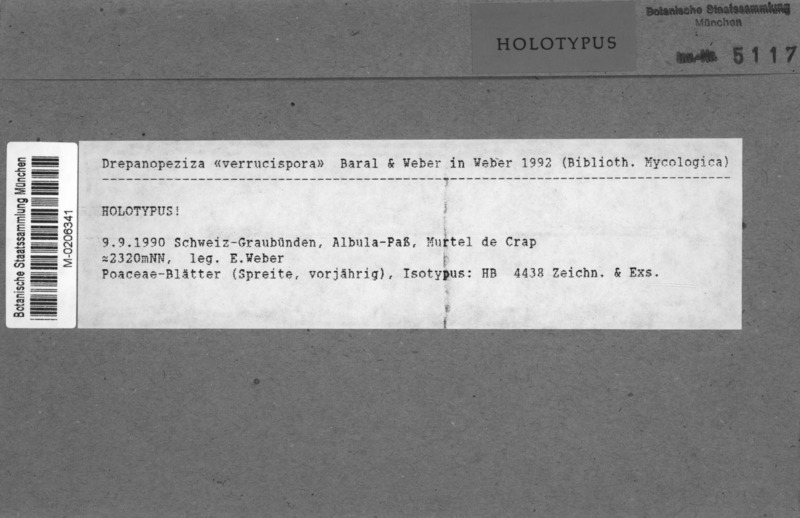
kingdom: Fungi
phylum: Ascomycota
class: Leotiomycetes
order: Helotiales
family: Drepanopezizaceae
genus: Drepanopeziza
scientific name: Drepanopeziza verrucispora
